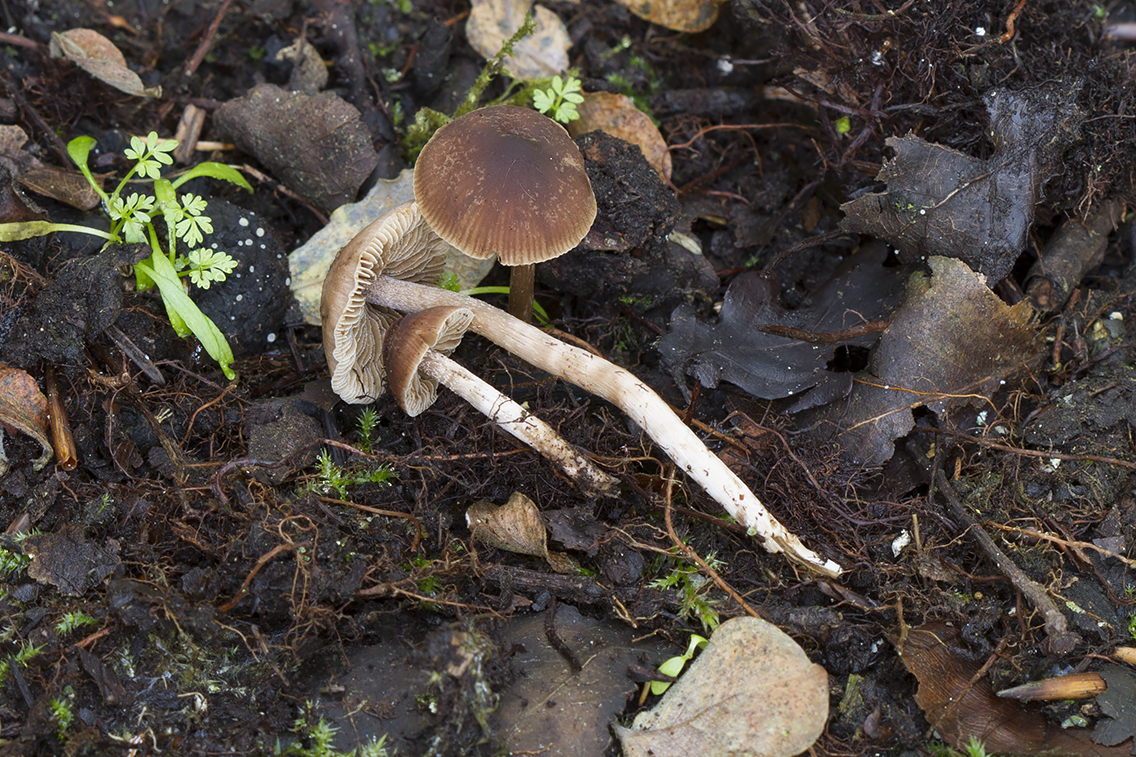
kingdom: Fungi
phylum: Basidiomycota
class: Agaricomycetes
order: Agaricales
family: Hymenogastraceae
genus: Naucoria
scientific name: Naucoria salicis
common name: pile-knaphat
